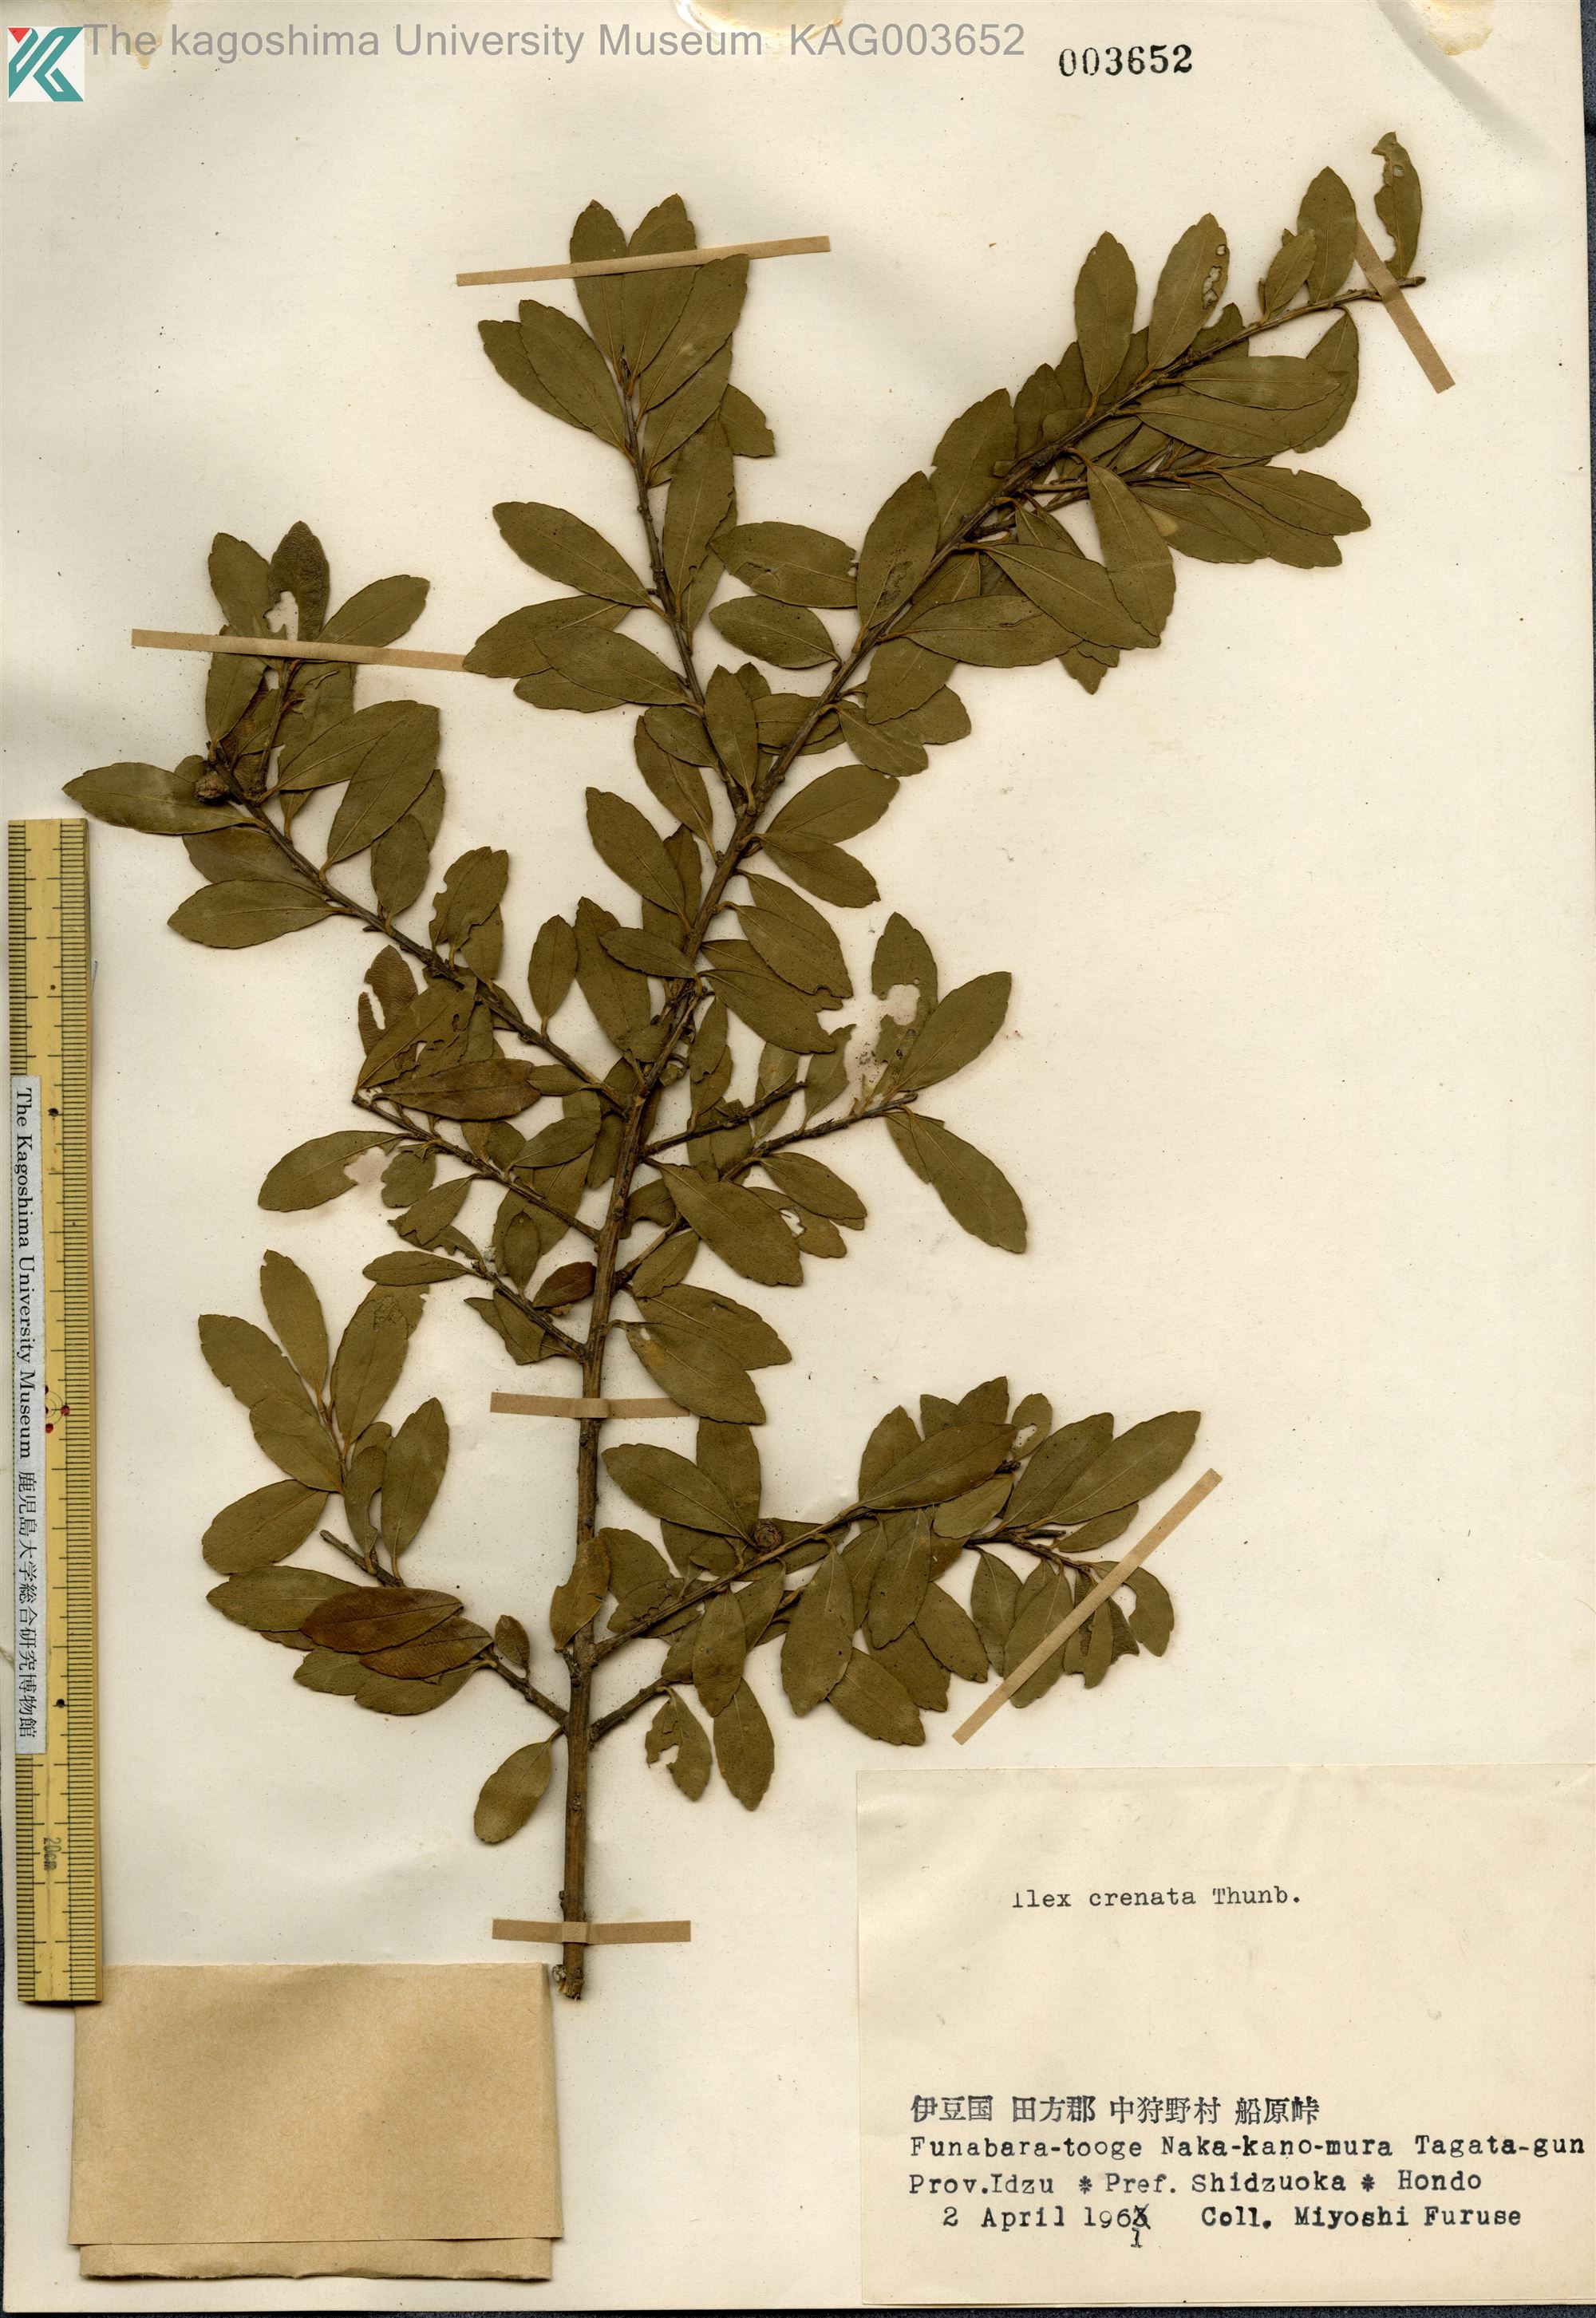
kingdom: Plantae
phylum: Tracheophyta
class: Magnoliopsida
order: Aquifoliales
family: Aquifoliaceae
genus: Ilex
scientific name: Ilex crenata
